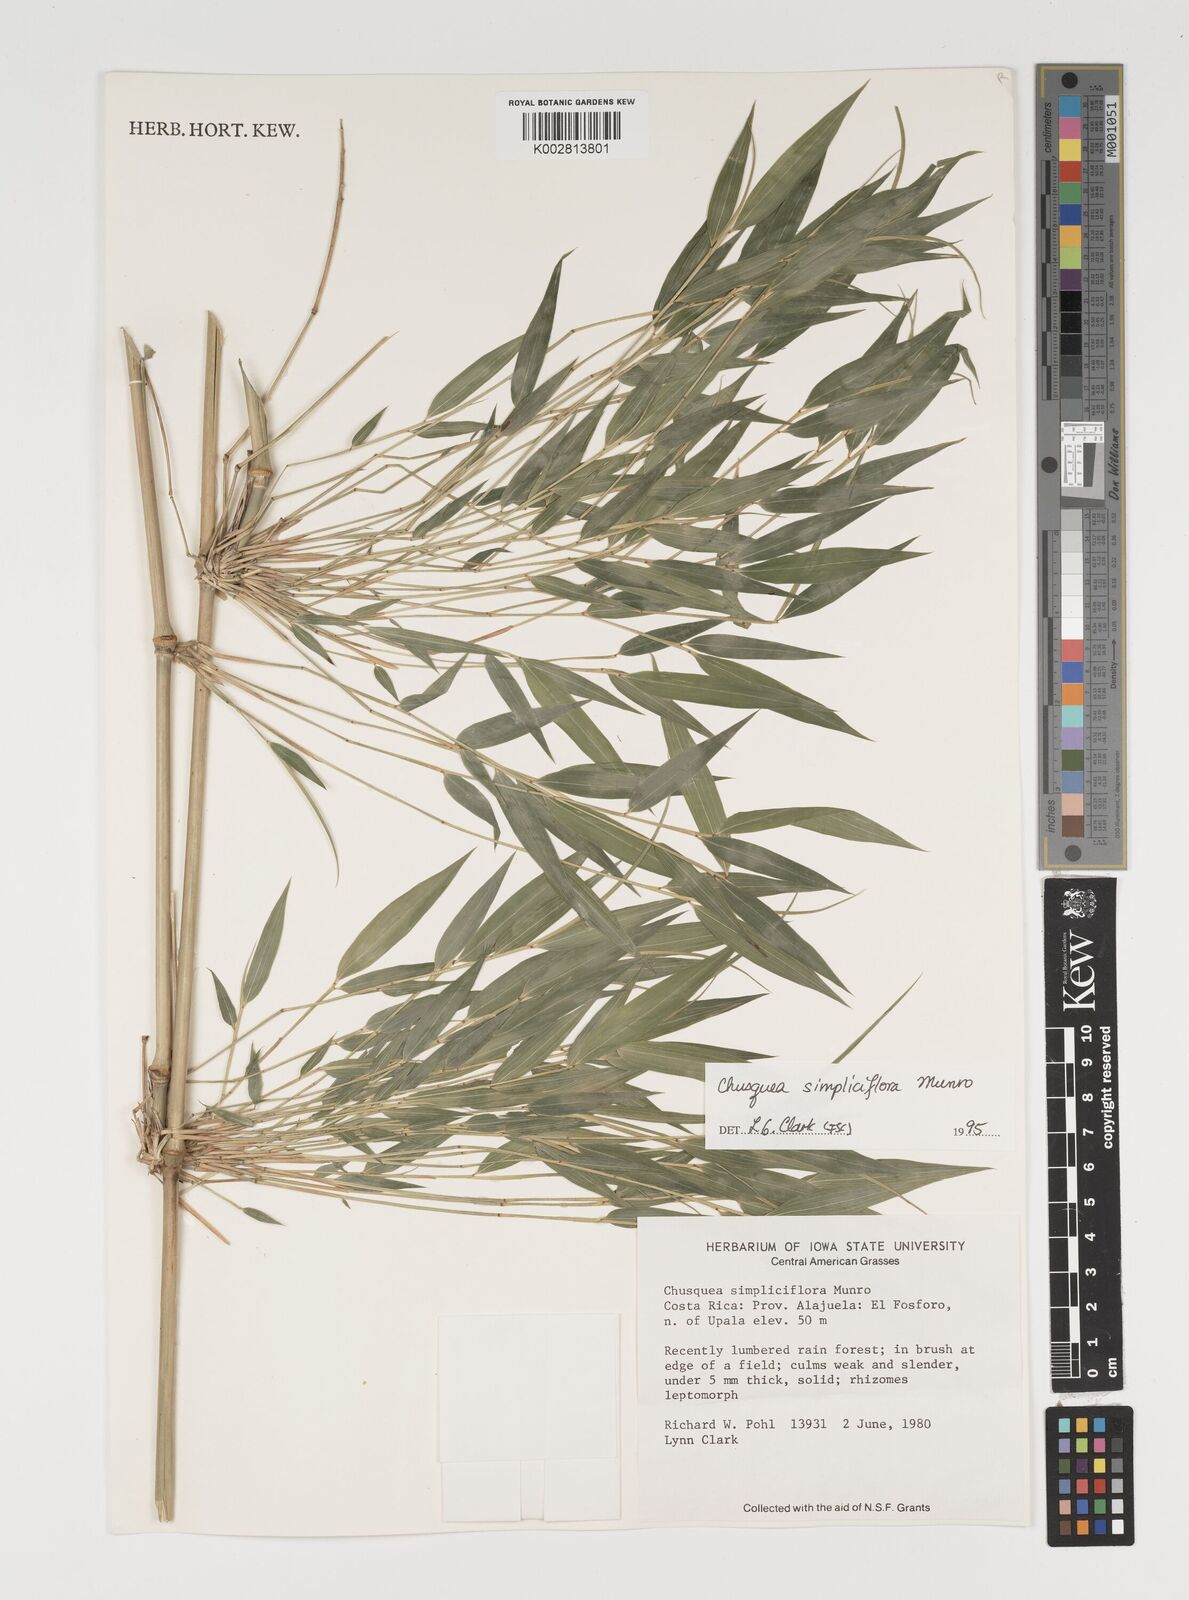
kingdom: Plantae
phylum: Tracheophyta
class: Liliopsida
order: Poales
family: Poaceae
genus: Chusquea
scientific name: Chusquea simpliciflora
